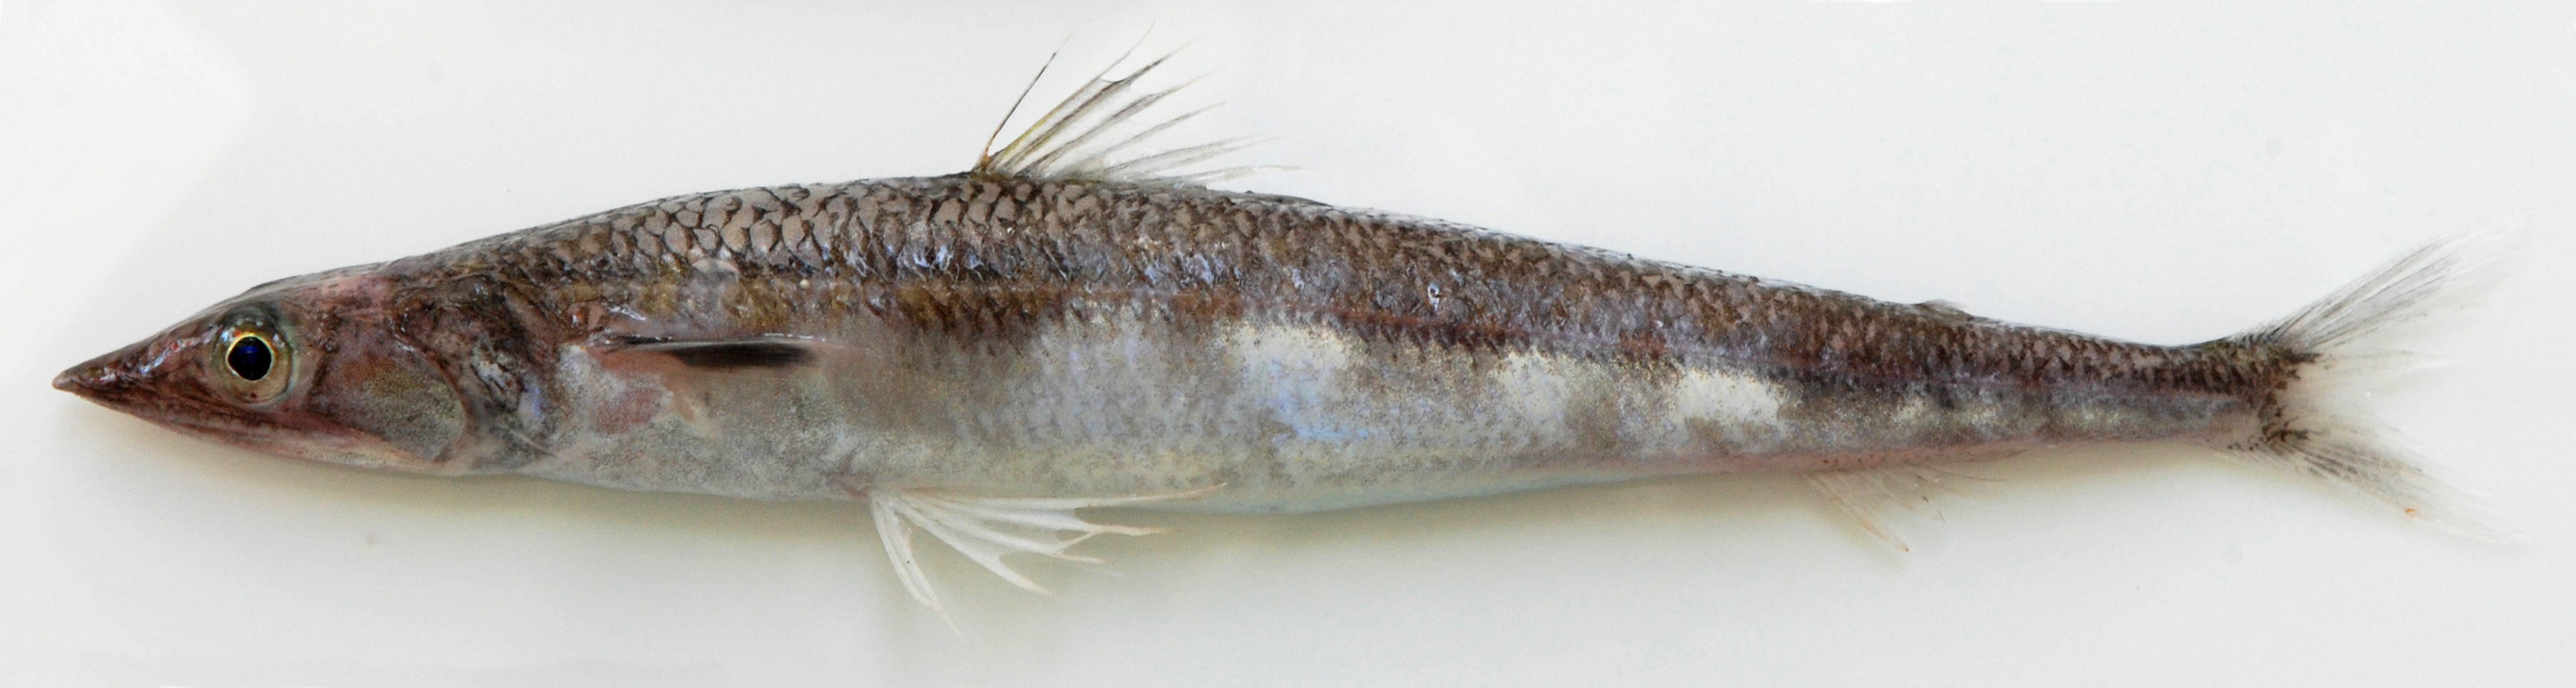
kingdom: Animalia
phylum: Chordata
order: Aulopiformes
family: Synodontidae
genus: Synodus
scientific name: Synodus kaianus
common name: Kaianus lizardfish
